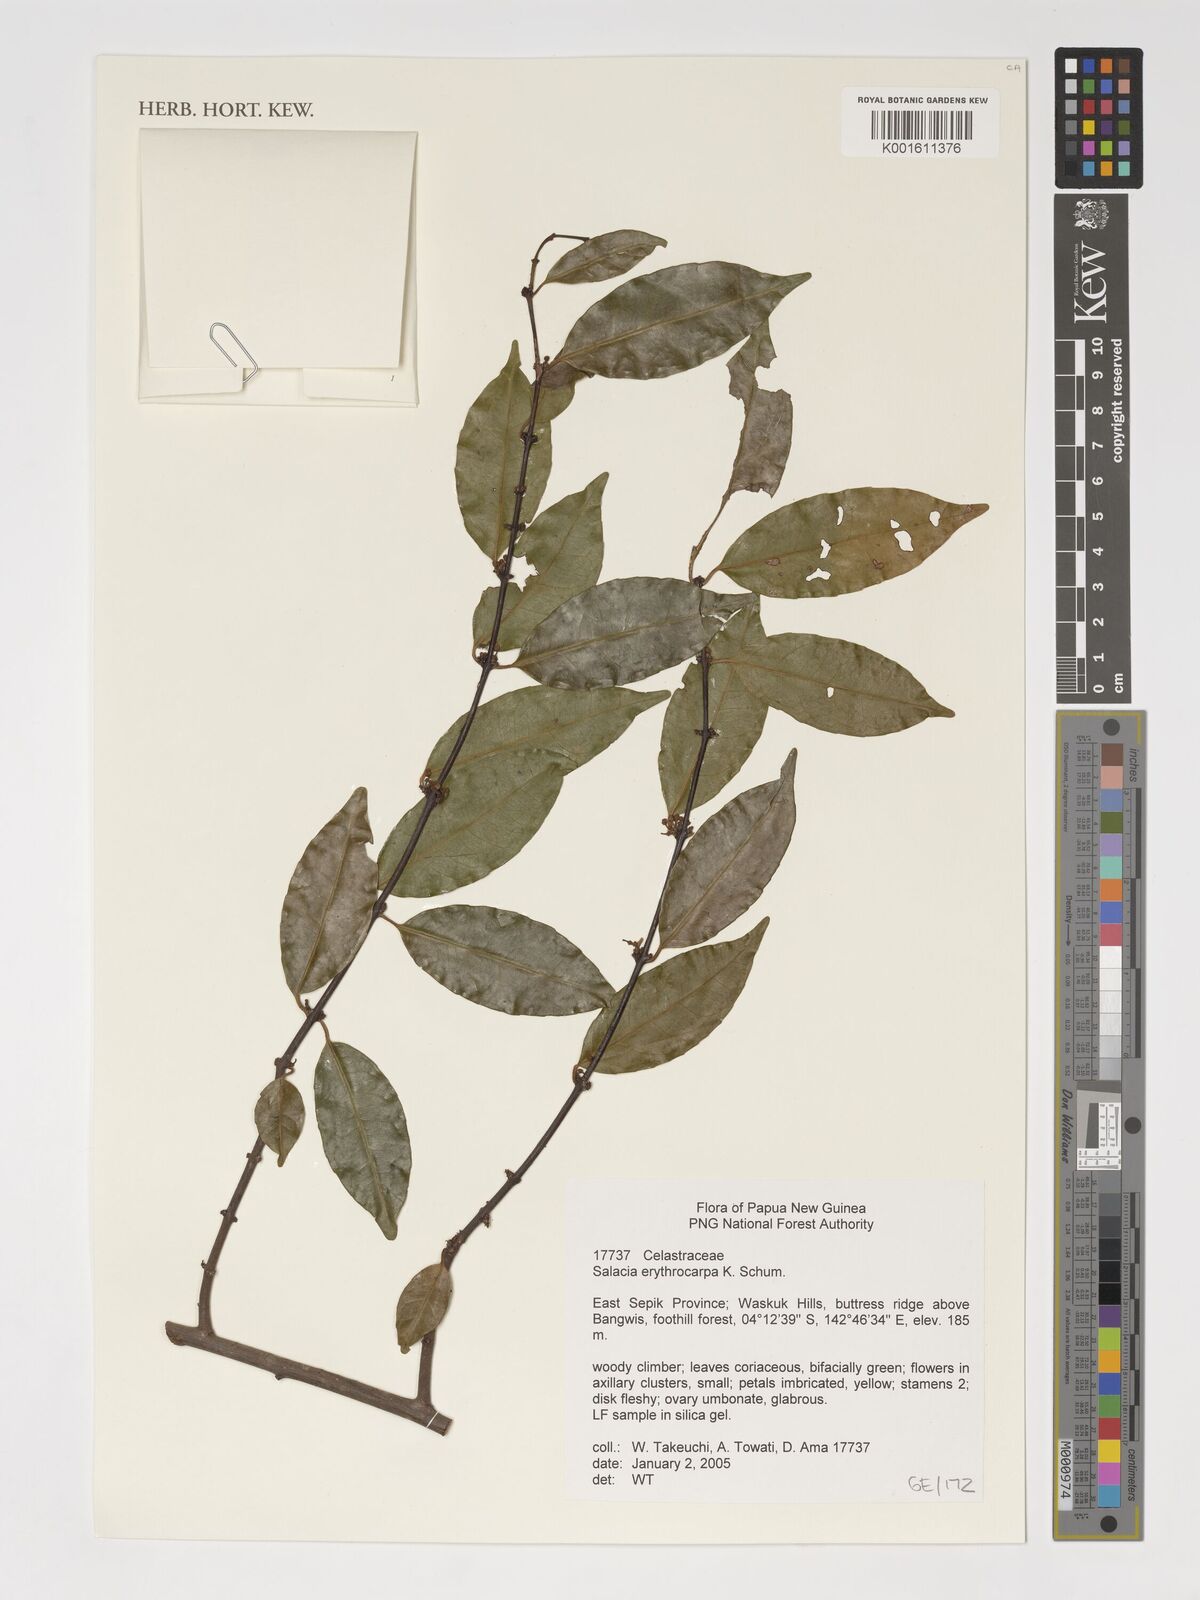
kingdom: Plantae
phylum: Tracheophyta
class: Magnoliopsida
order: Celastrales
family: Celastraceae
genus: Salacia
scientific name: Salacia erythrocarpa
